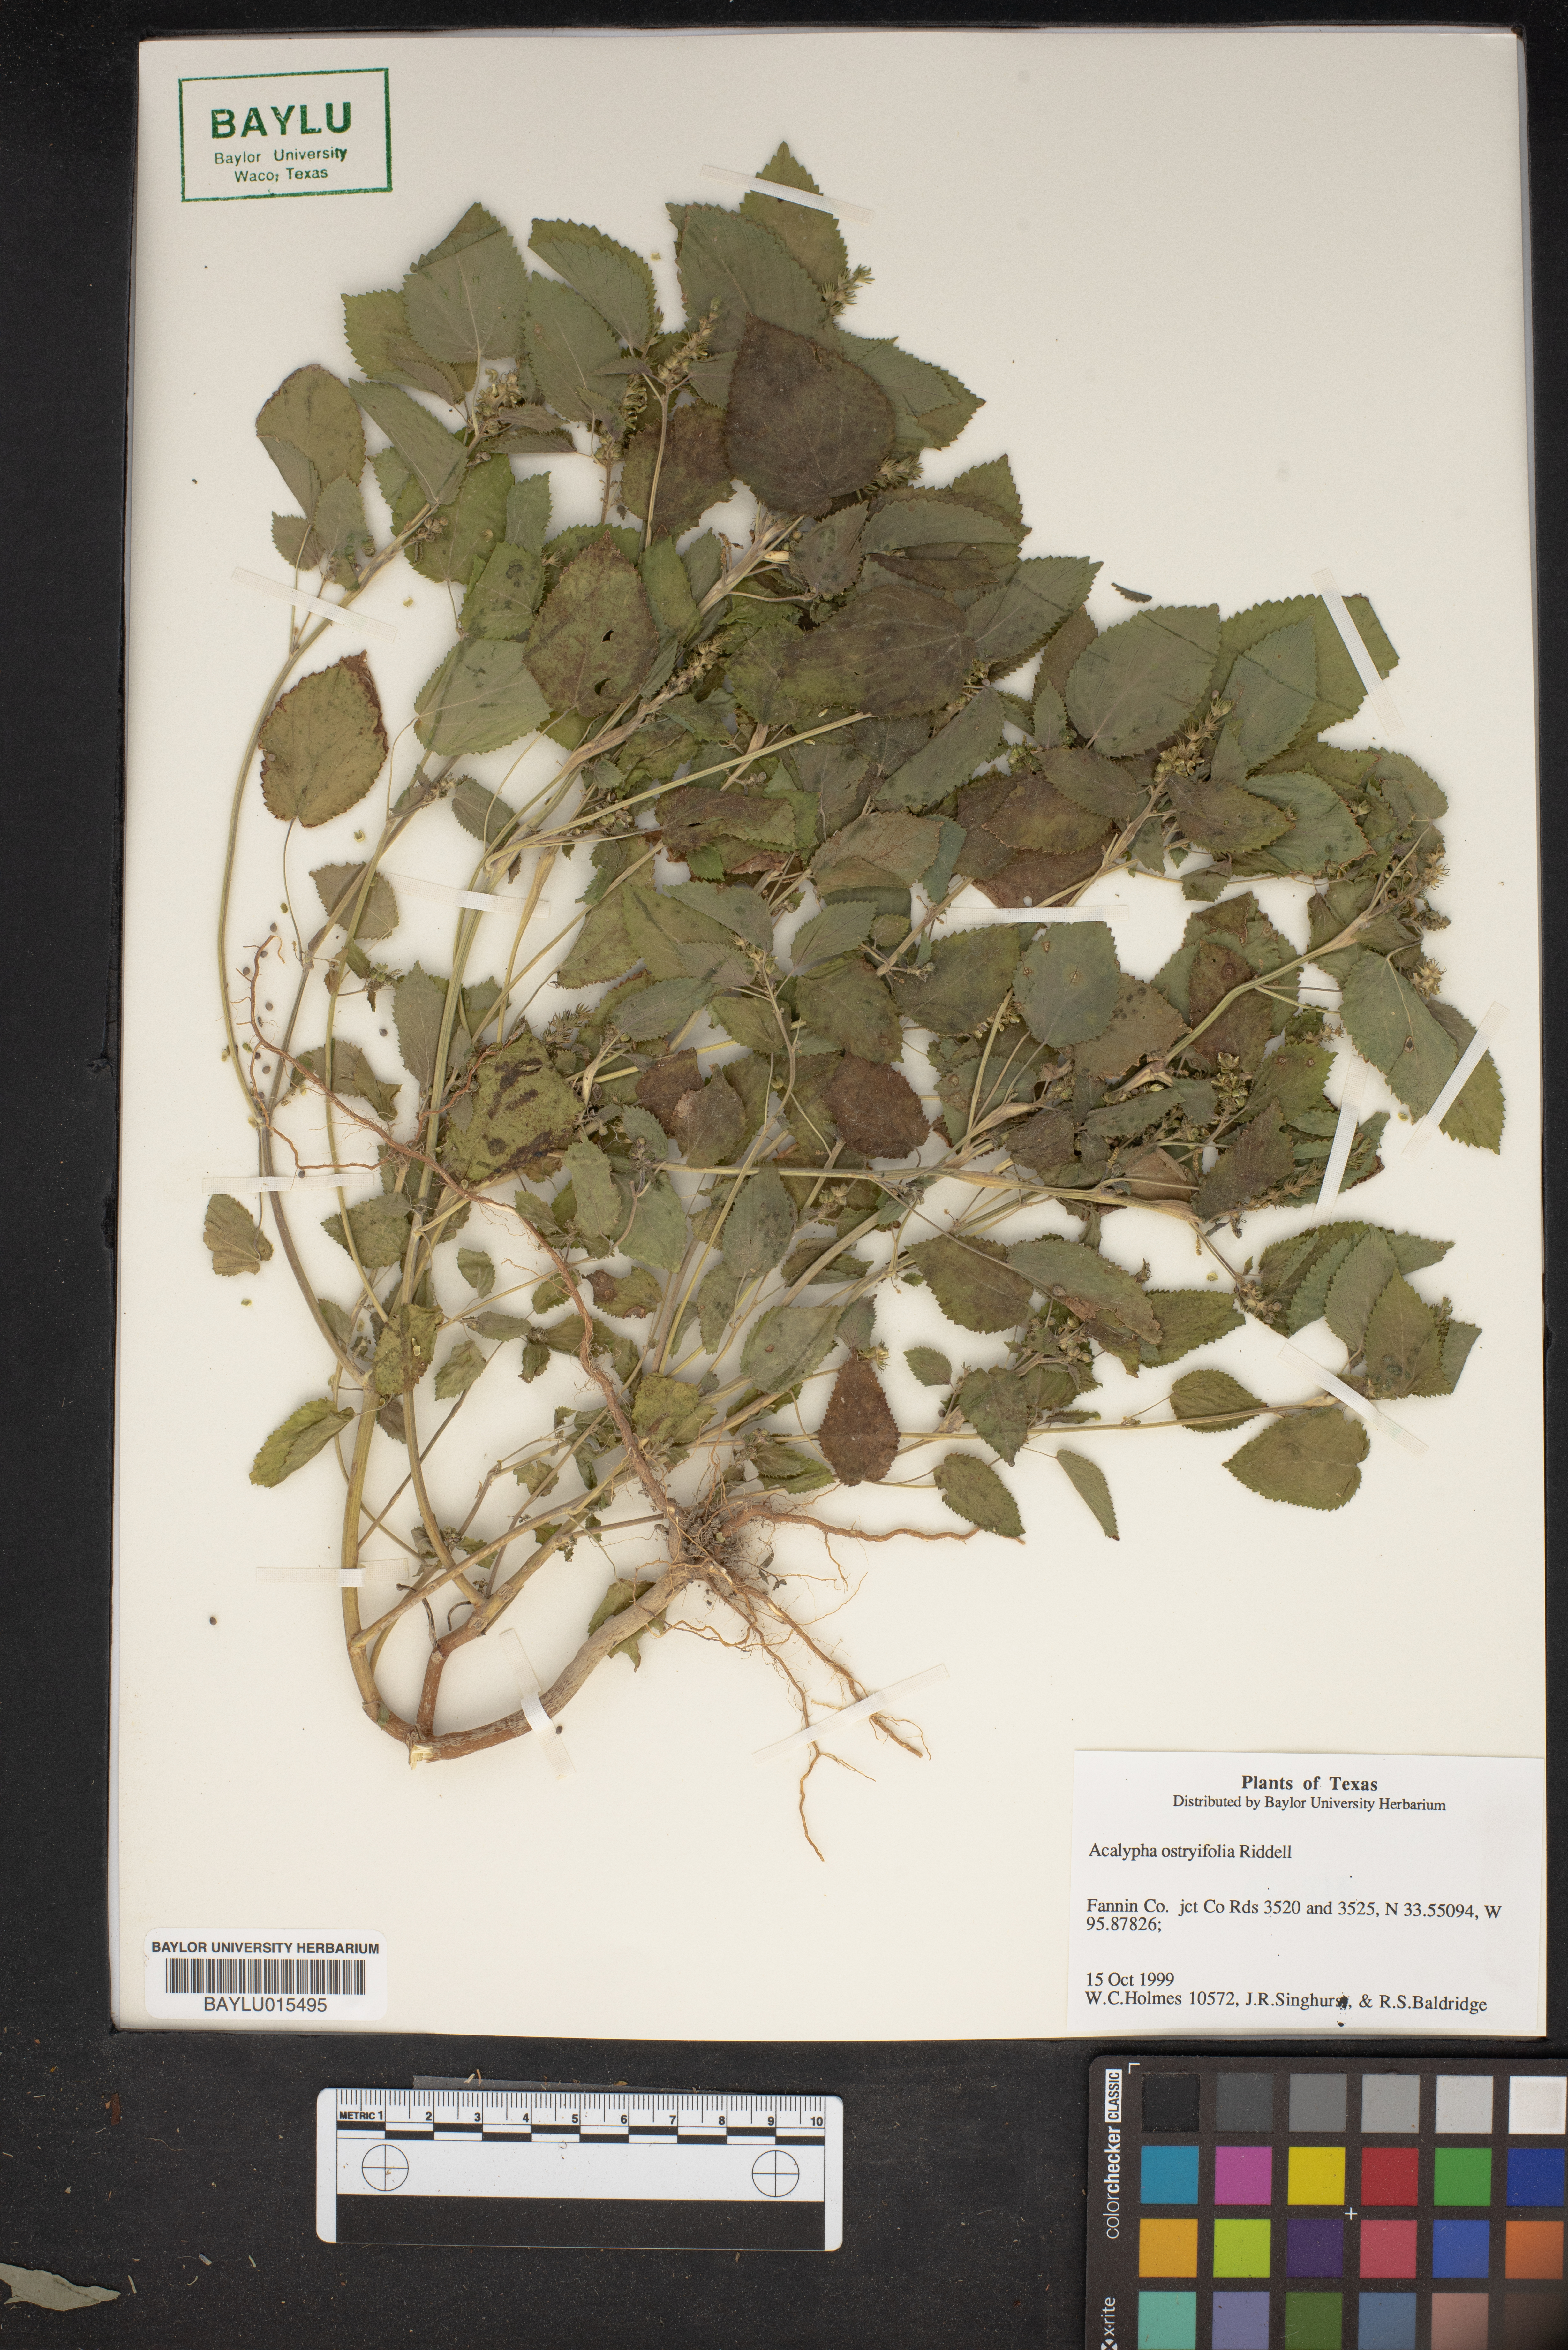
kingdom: Plantae
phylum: Tracheophyta
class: Magnoliopsida
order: Malpighiales
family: Euphorbiaceae
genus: Acalypha
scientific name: Acalypha persimilis
